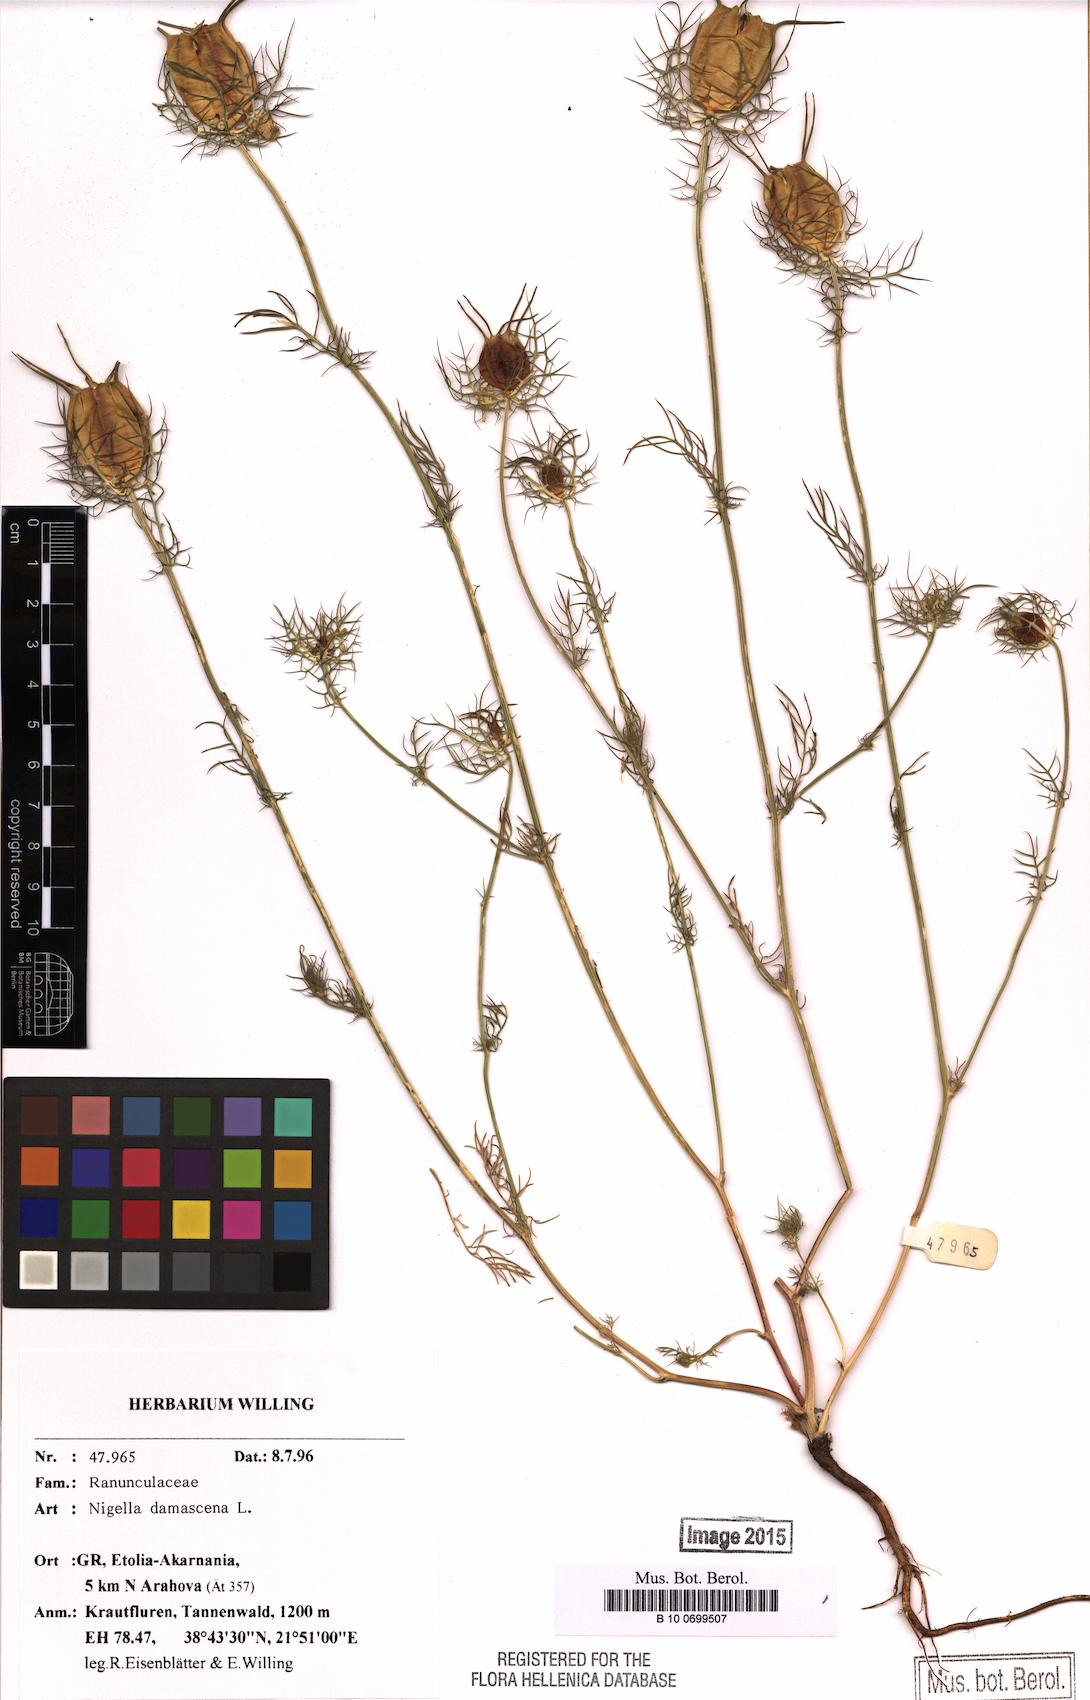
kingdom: Plantae
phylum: Tracheophyta
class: Magnoliopsida
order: Ranunculales
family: Ranunculaceae
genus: Nigella
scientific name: Nigella damascena
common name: Love-in-a-mist
